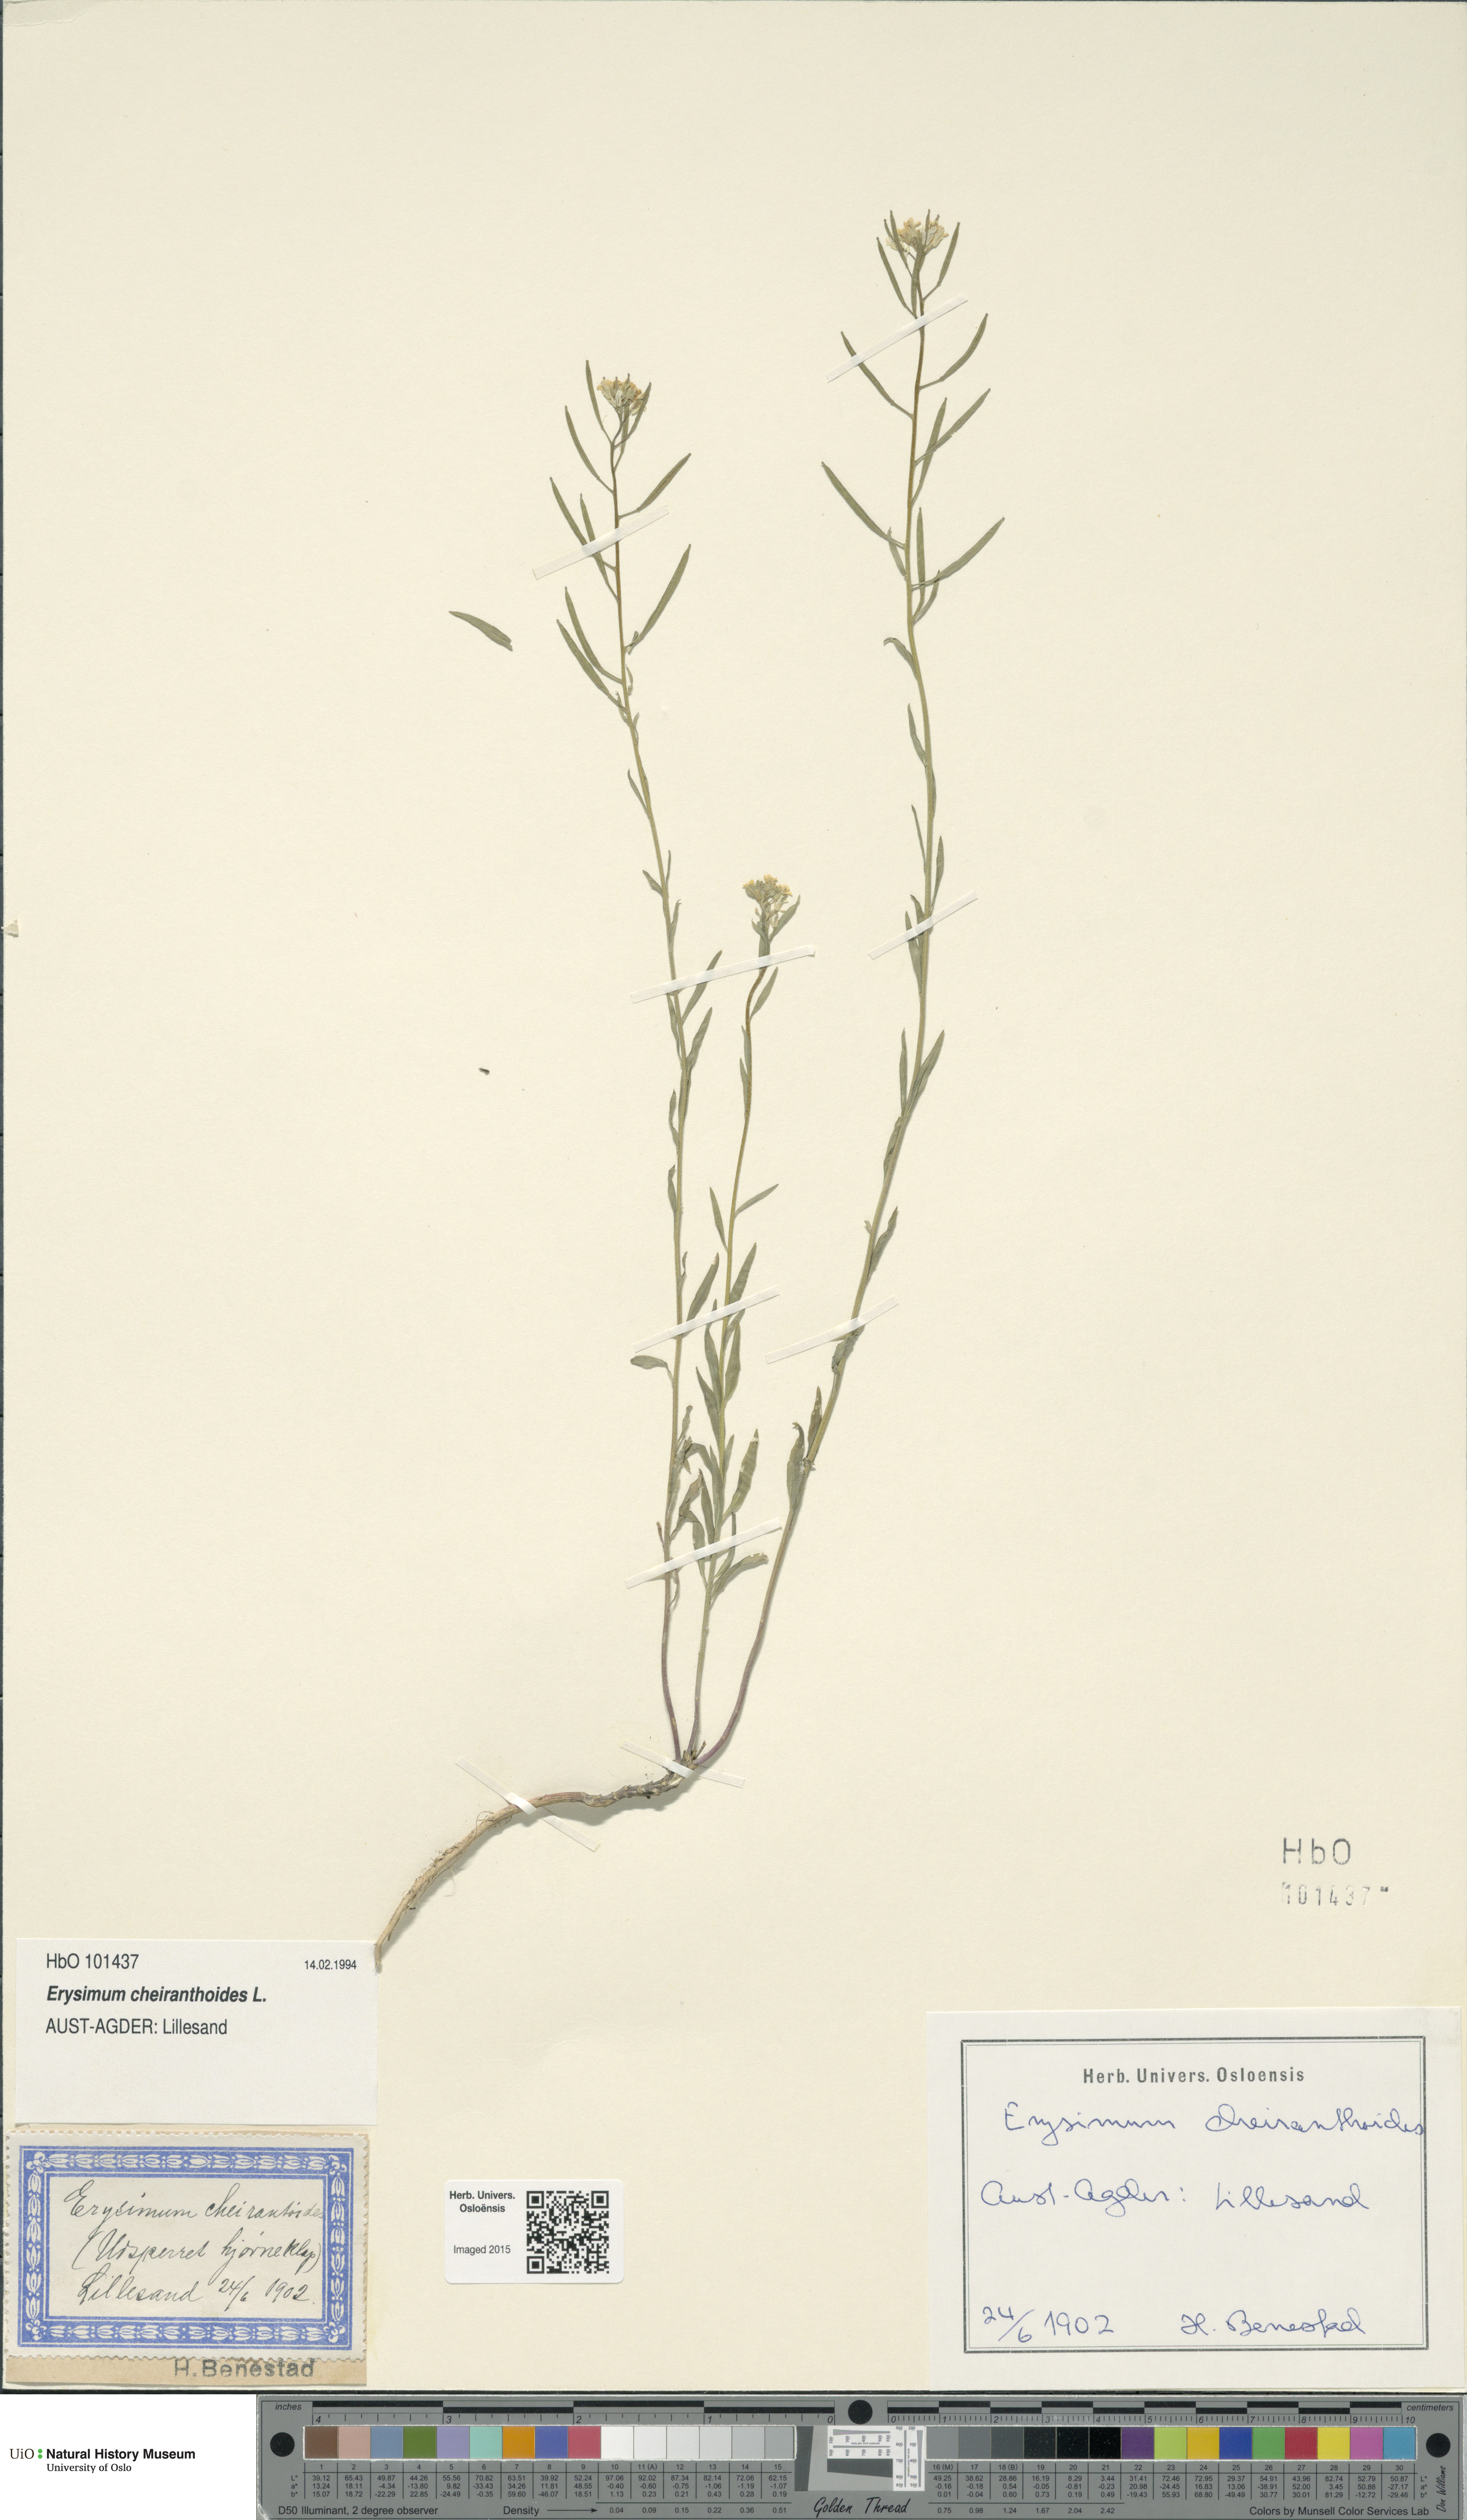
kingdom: Plantae
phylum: Tracheophyta
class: Magnoliopsida
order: Brassicales
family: Brassicaceae
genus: Erysimum
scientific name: Erysimum cheiranthoides
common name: Treacle mustard
